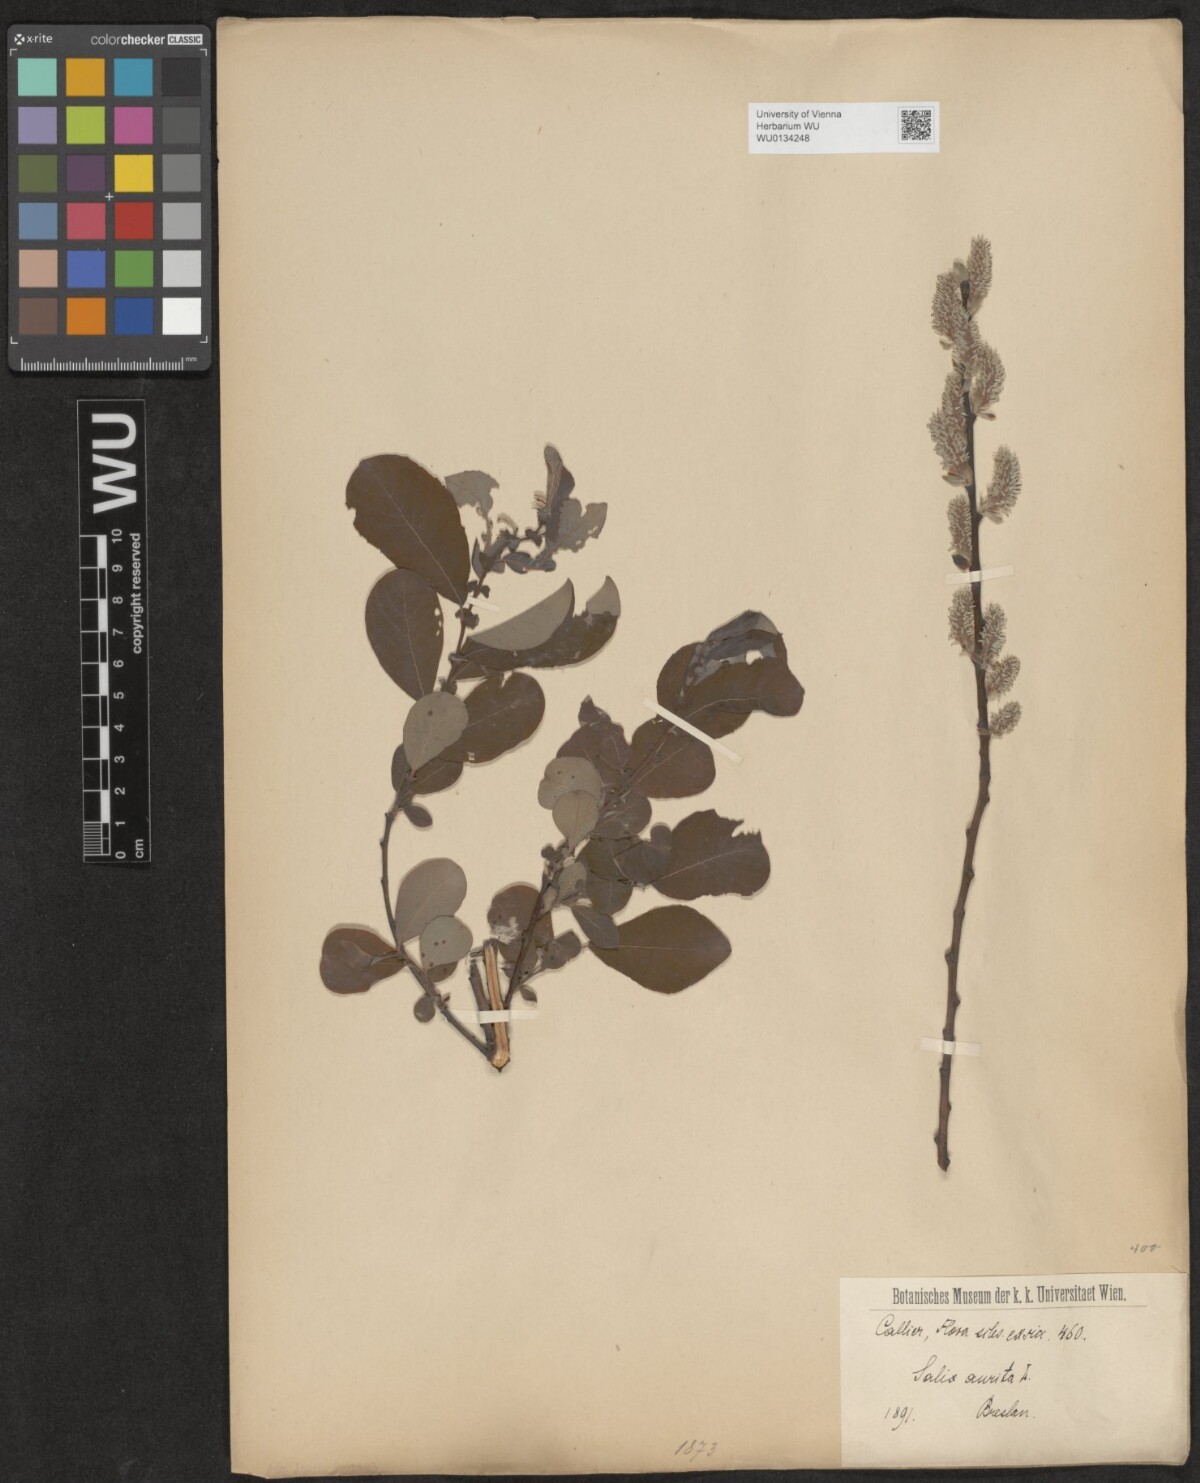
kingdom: Plantae
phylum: Tracheophyta
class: Magnoliopsida
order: Malpighiales
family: Salicaceae
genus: Salix
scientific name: Salix aurita
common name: Eared willow
